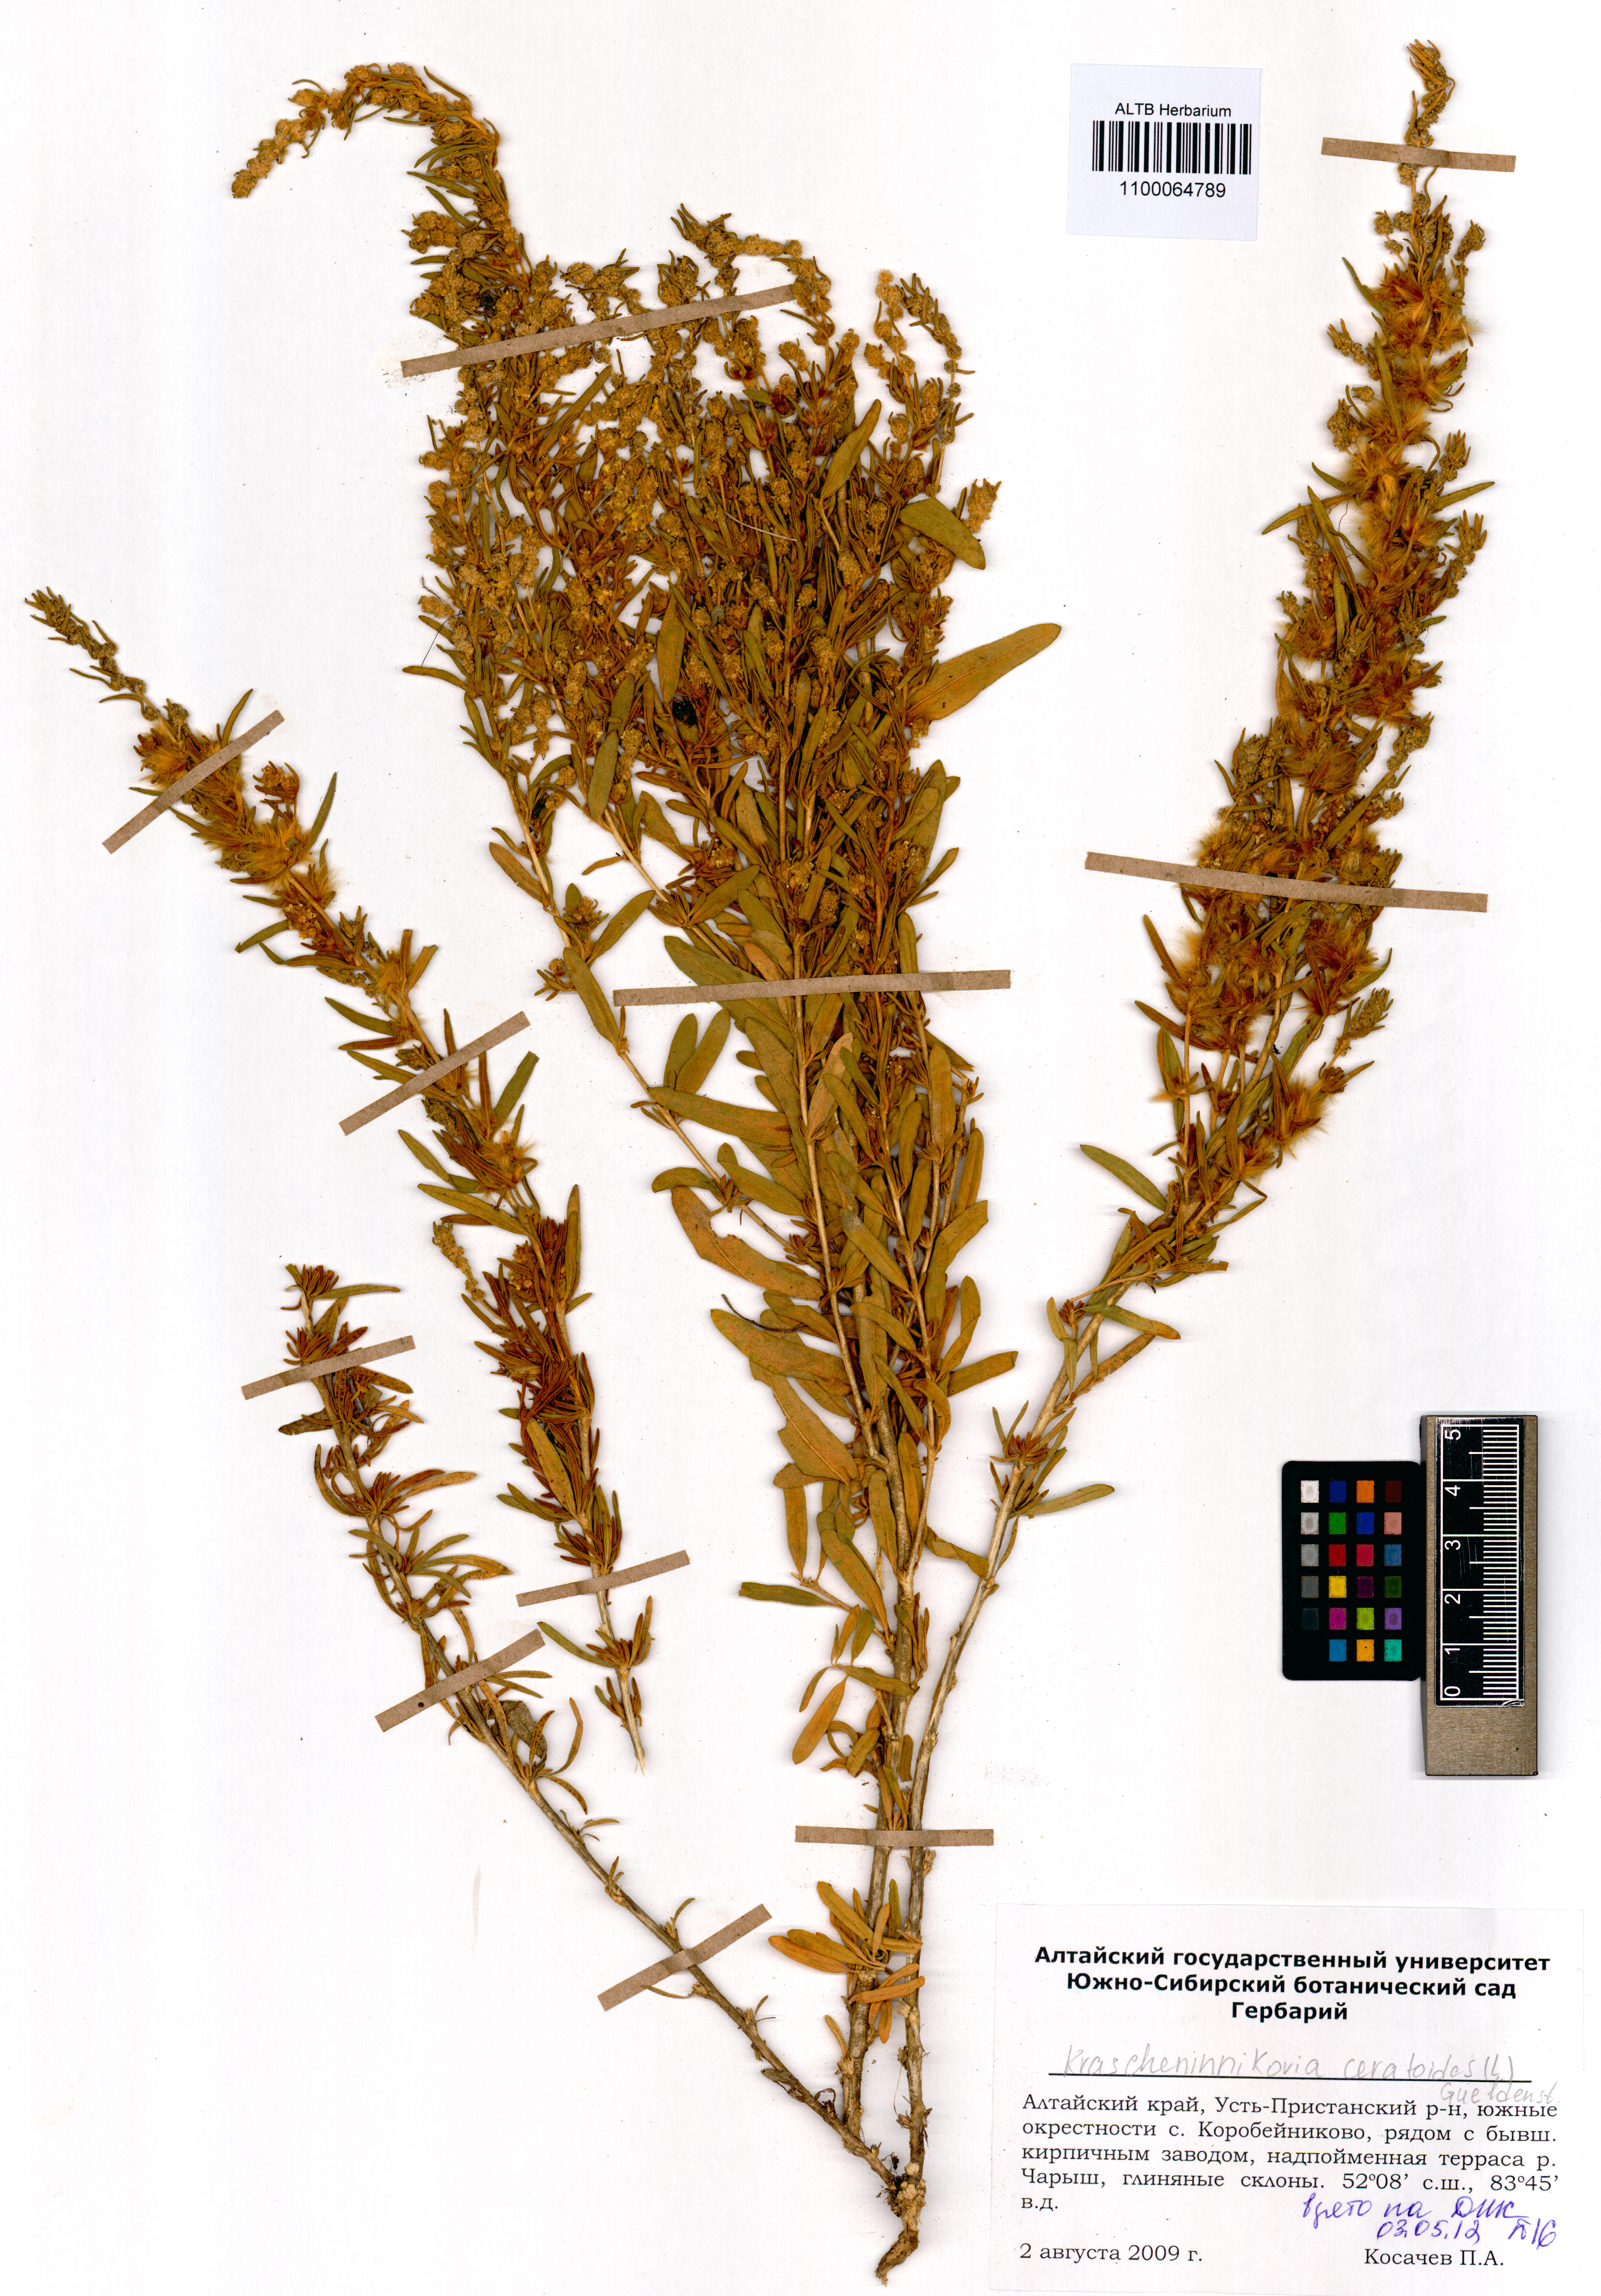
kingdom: Plantae
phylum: Tracheophyta
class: Magnoliopsida
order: Caryophyllales
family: Amaranthaceae
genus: Krascheninnikovia
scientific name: Krascheninnikovia ceratoides
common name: Pamirian winterfat
